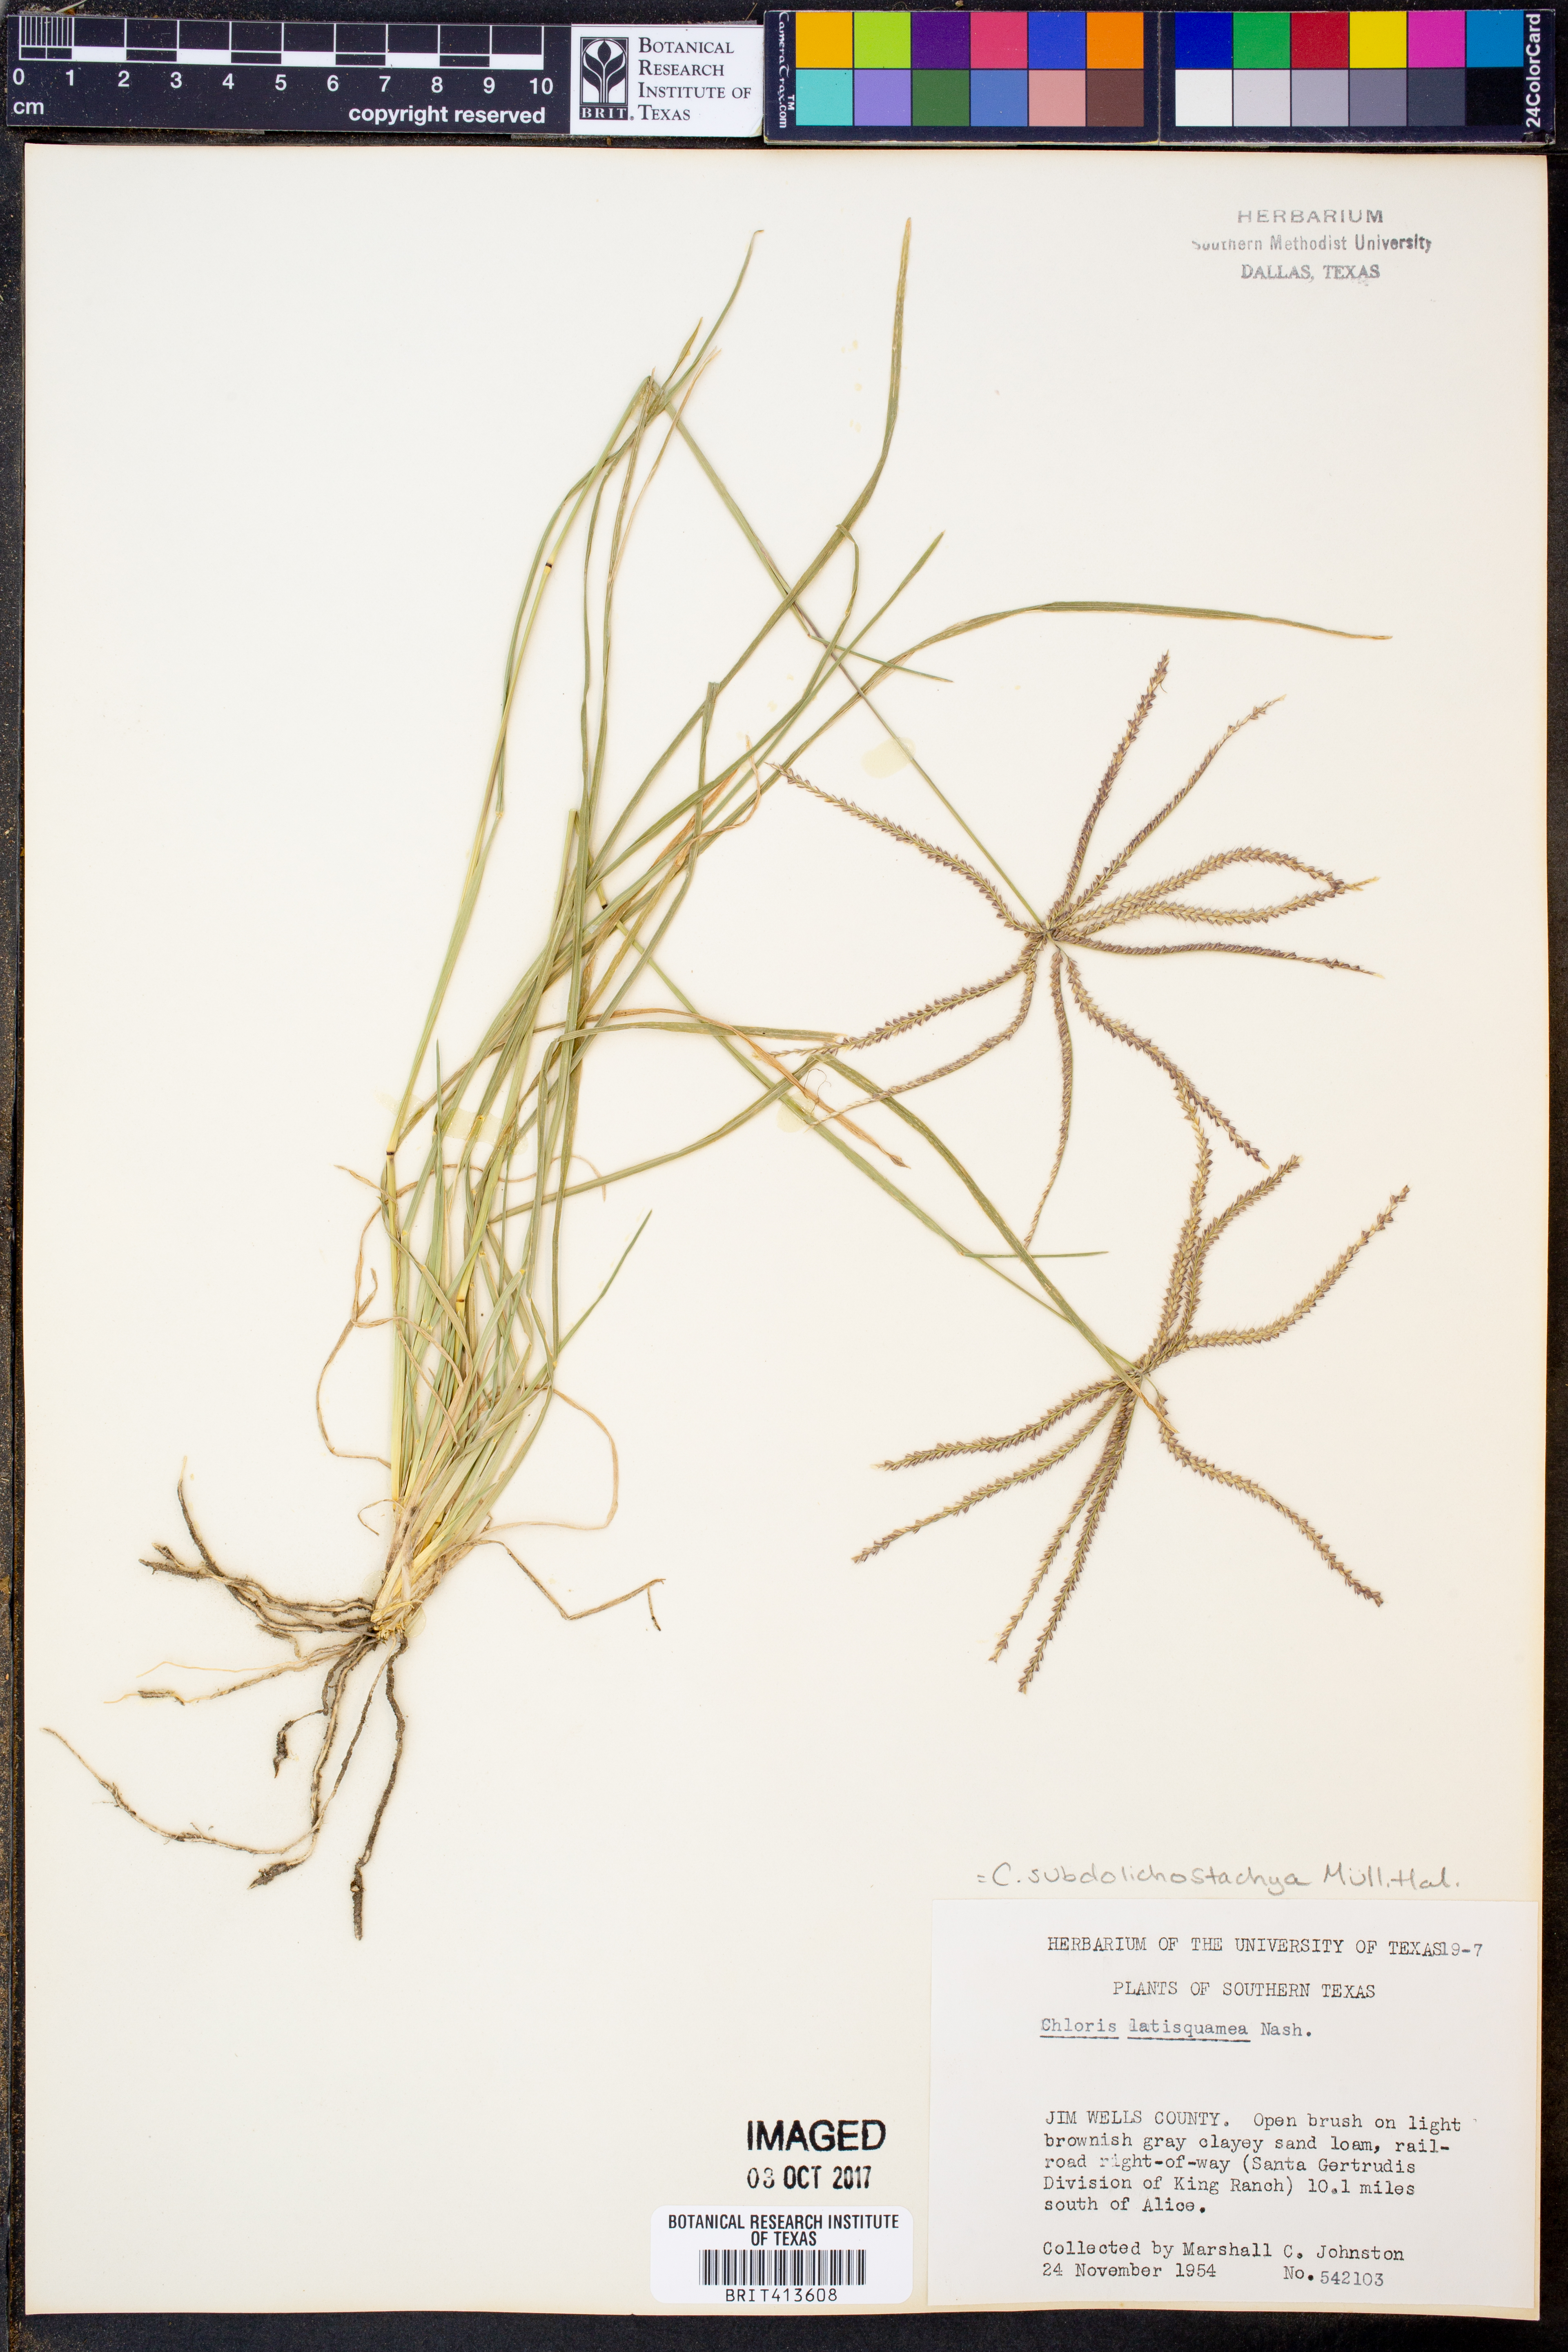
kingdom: Plantae
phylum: Tracheophyta
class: Liliopsida
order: Poales
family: Poaceae
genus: Chloris
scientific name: Chloris subdolichostachya
